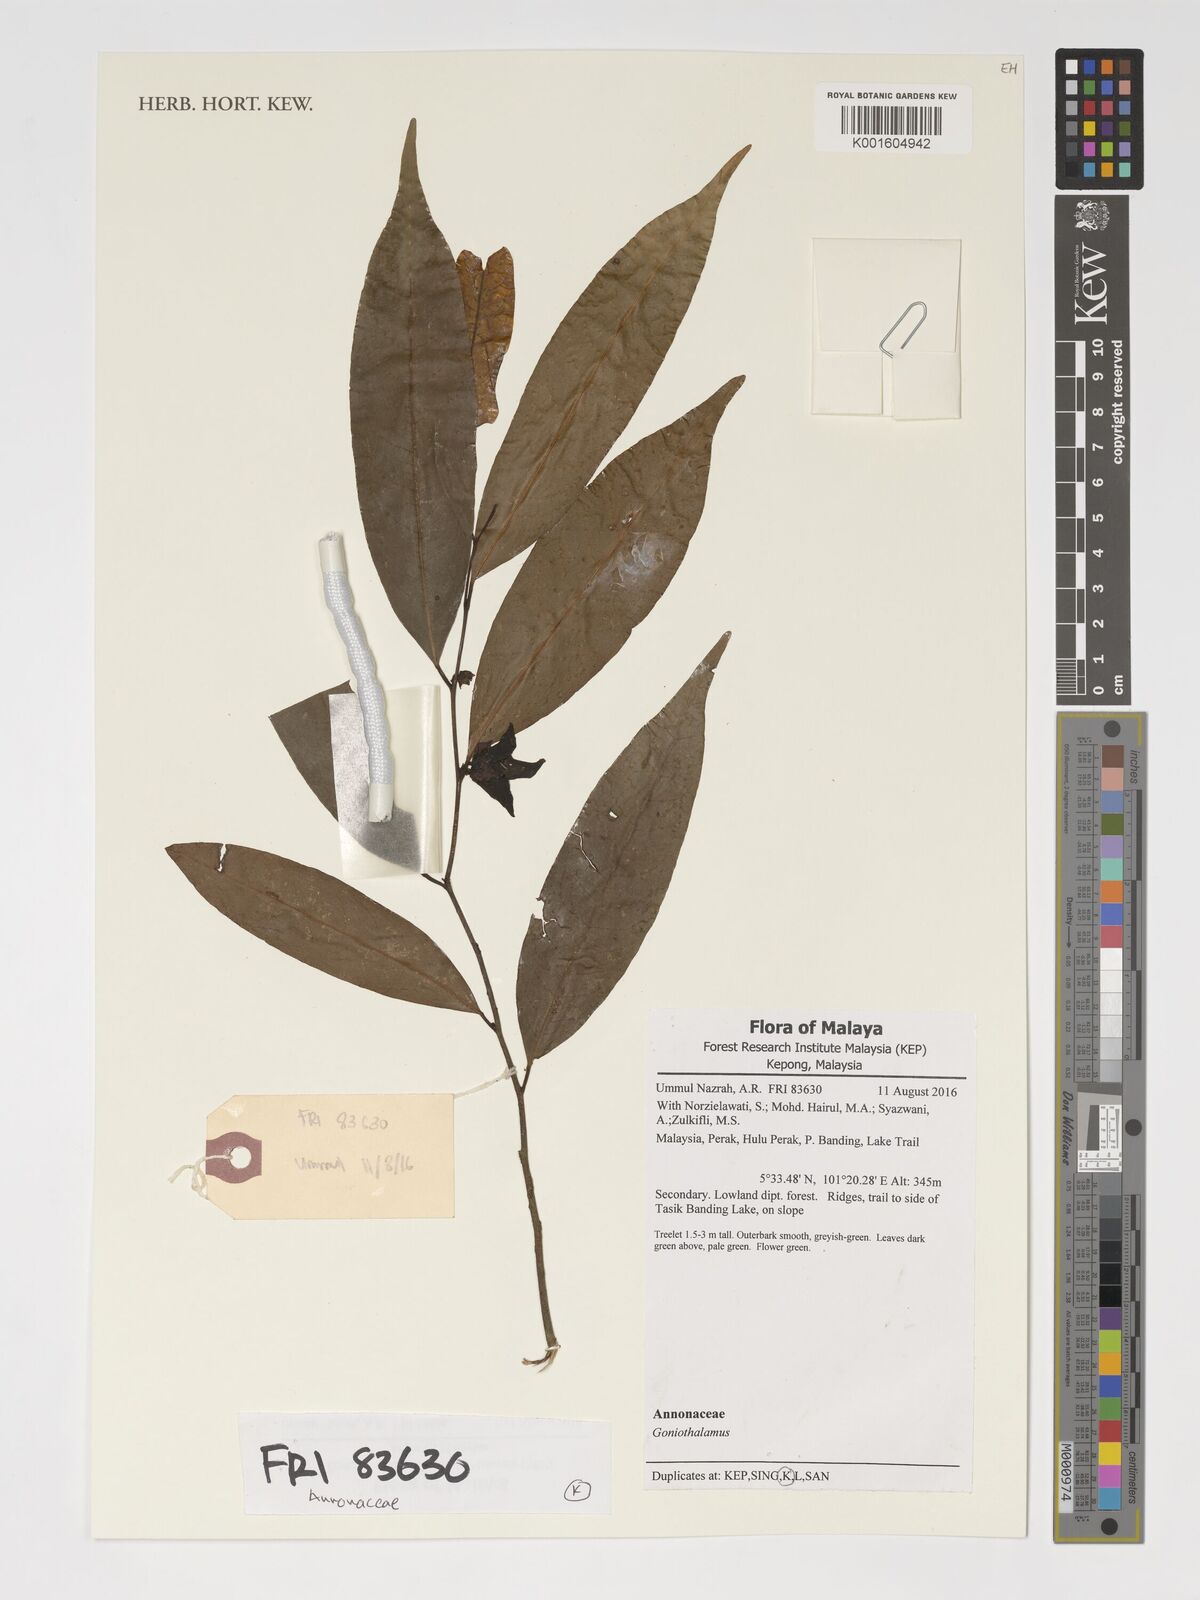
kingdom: Plantae
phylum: Tracheophyta
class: Magnoliopsida
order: Magnoliales
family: Annonaceae
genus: Goniothalamus
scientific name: Goniothalamus
